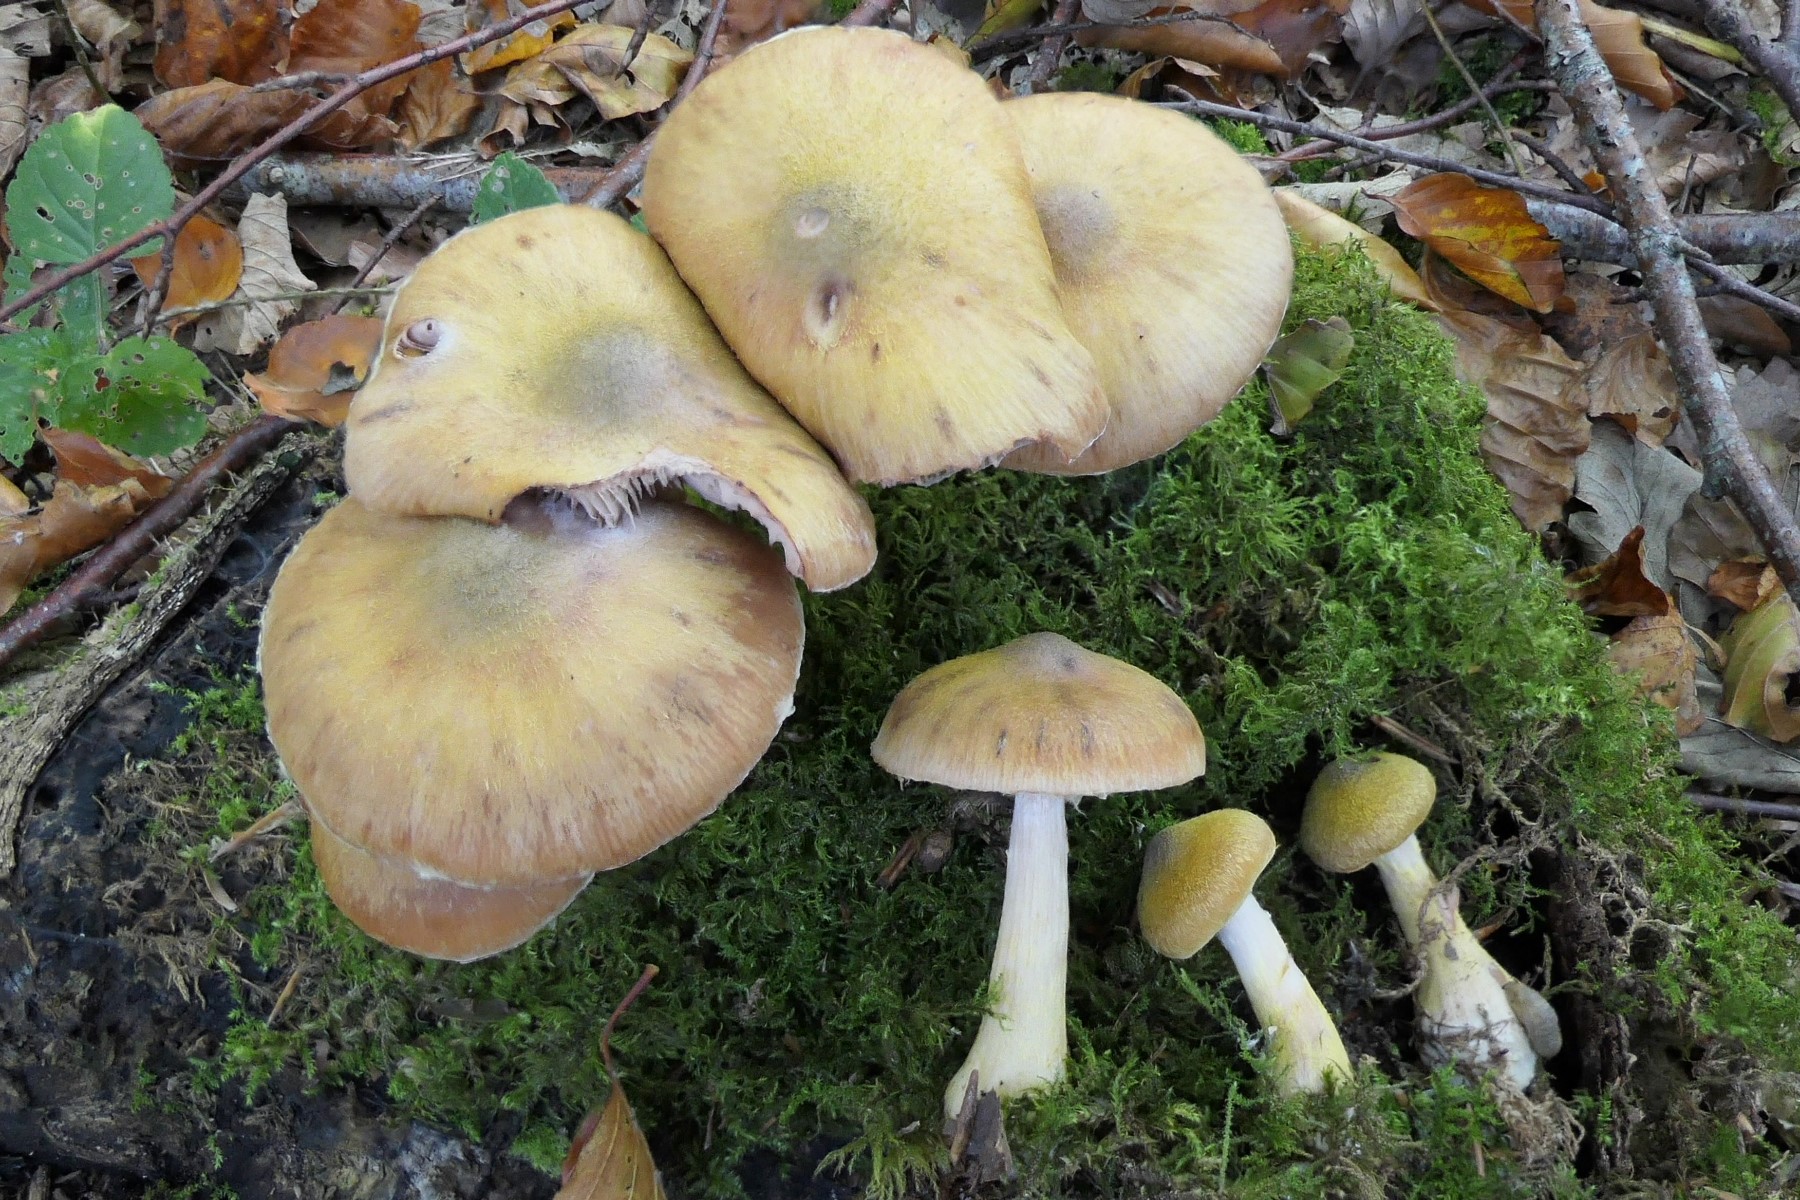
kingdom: Fungi
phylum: Basidiomycota
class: Agaricomycetes
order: Agaricales
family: Physalacriaceae
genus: Armillaria
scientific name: Armillaria lutea
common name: køllestokket honningsvamp
